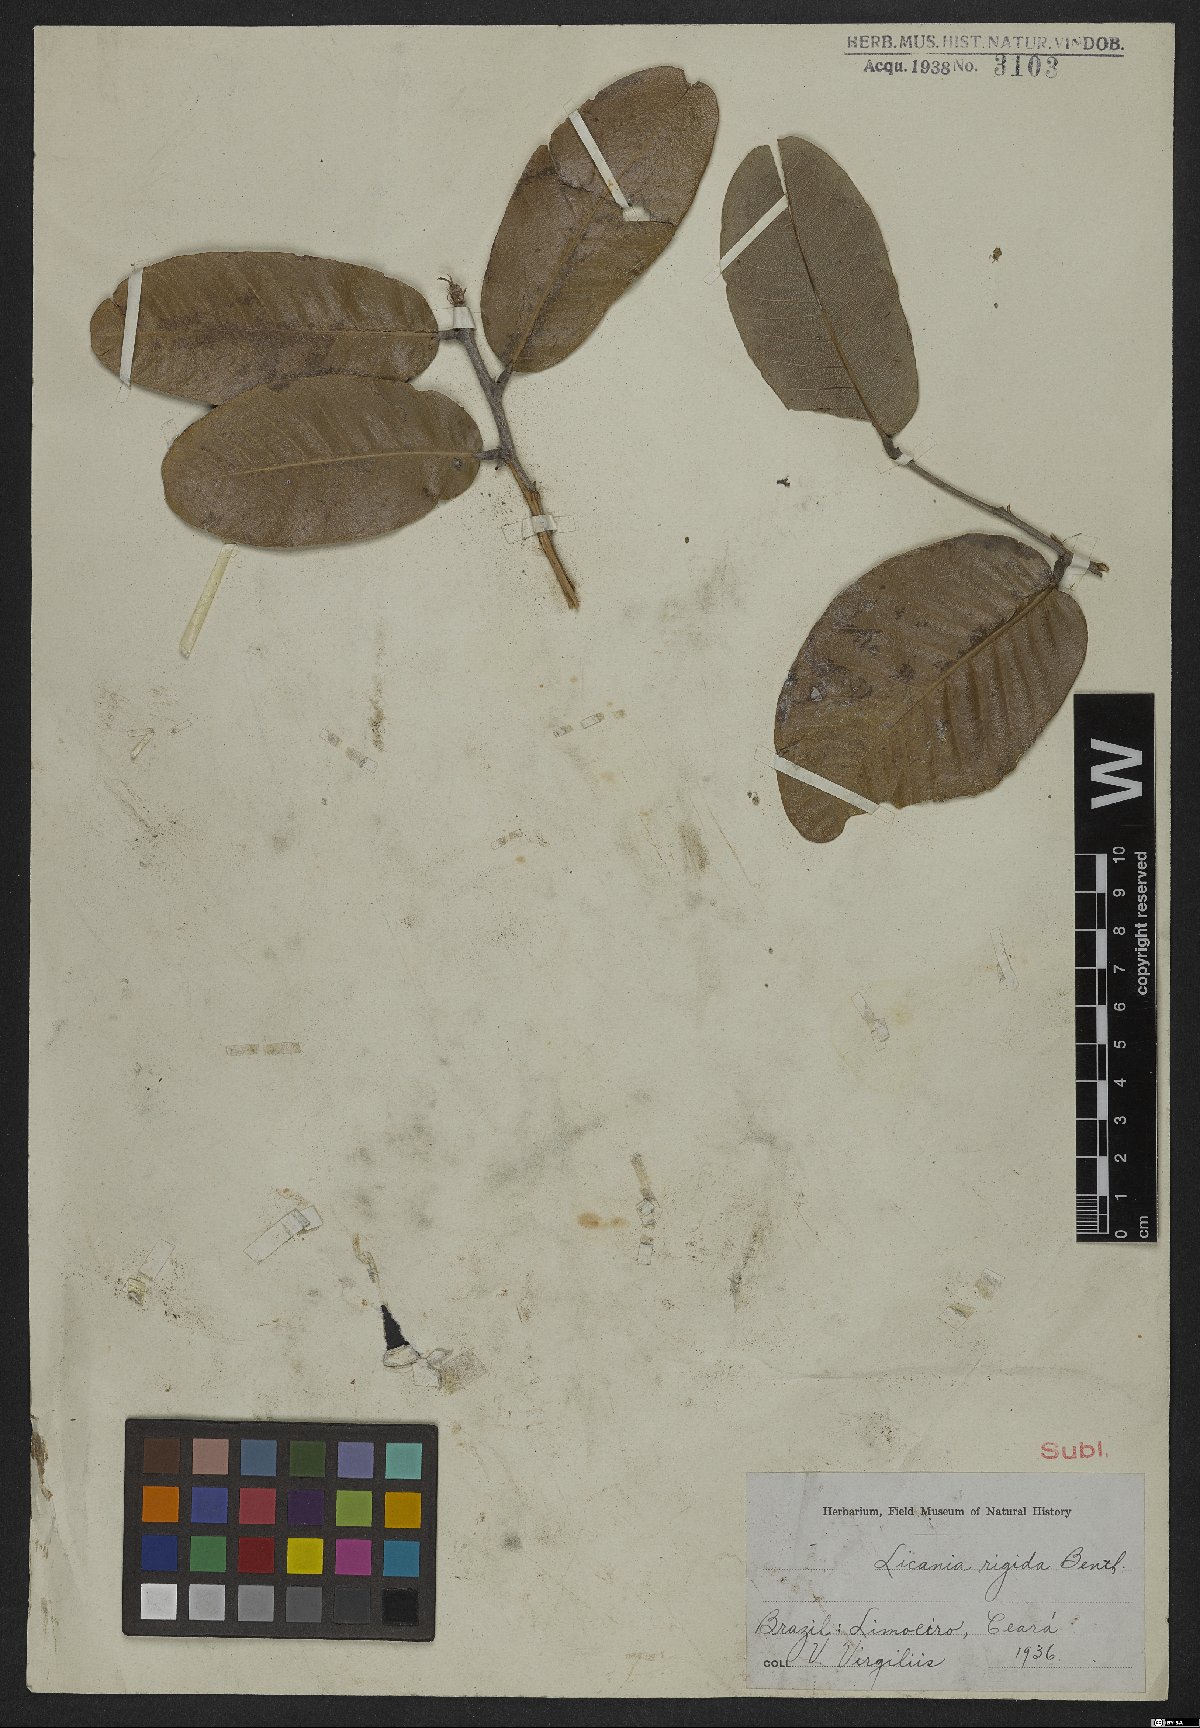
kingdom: Plantae
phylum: Tracheophyta
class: Magnoliopsida
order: Malpighiales
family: Chrysobalanaceae
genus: Microdesmia
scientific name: Microdesmia rigida
